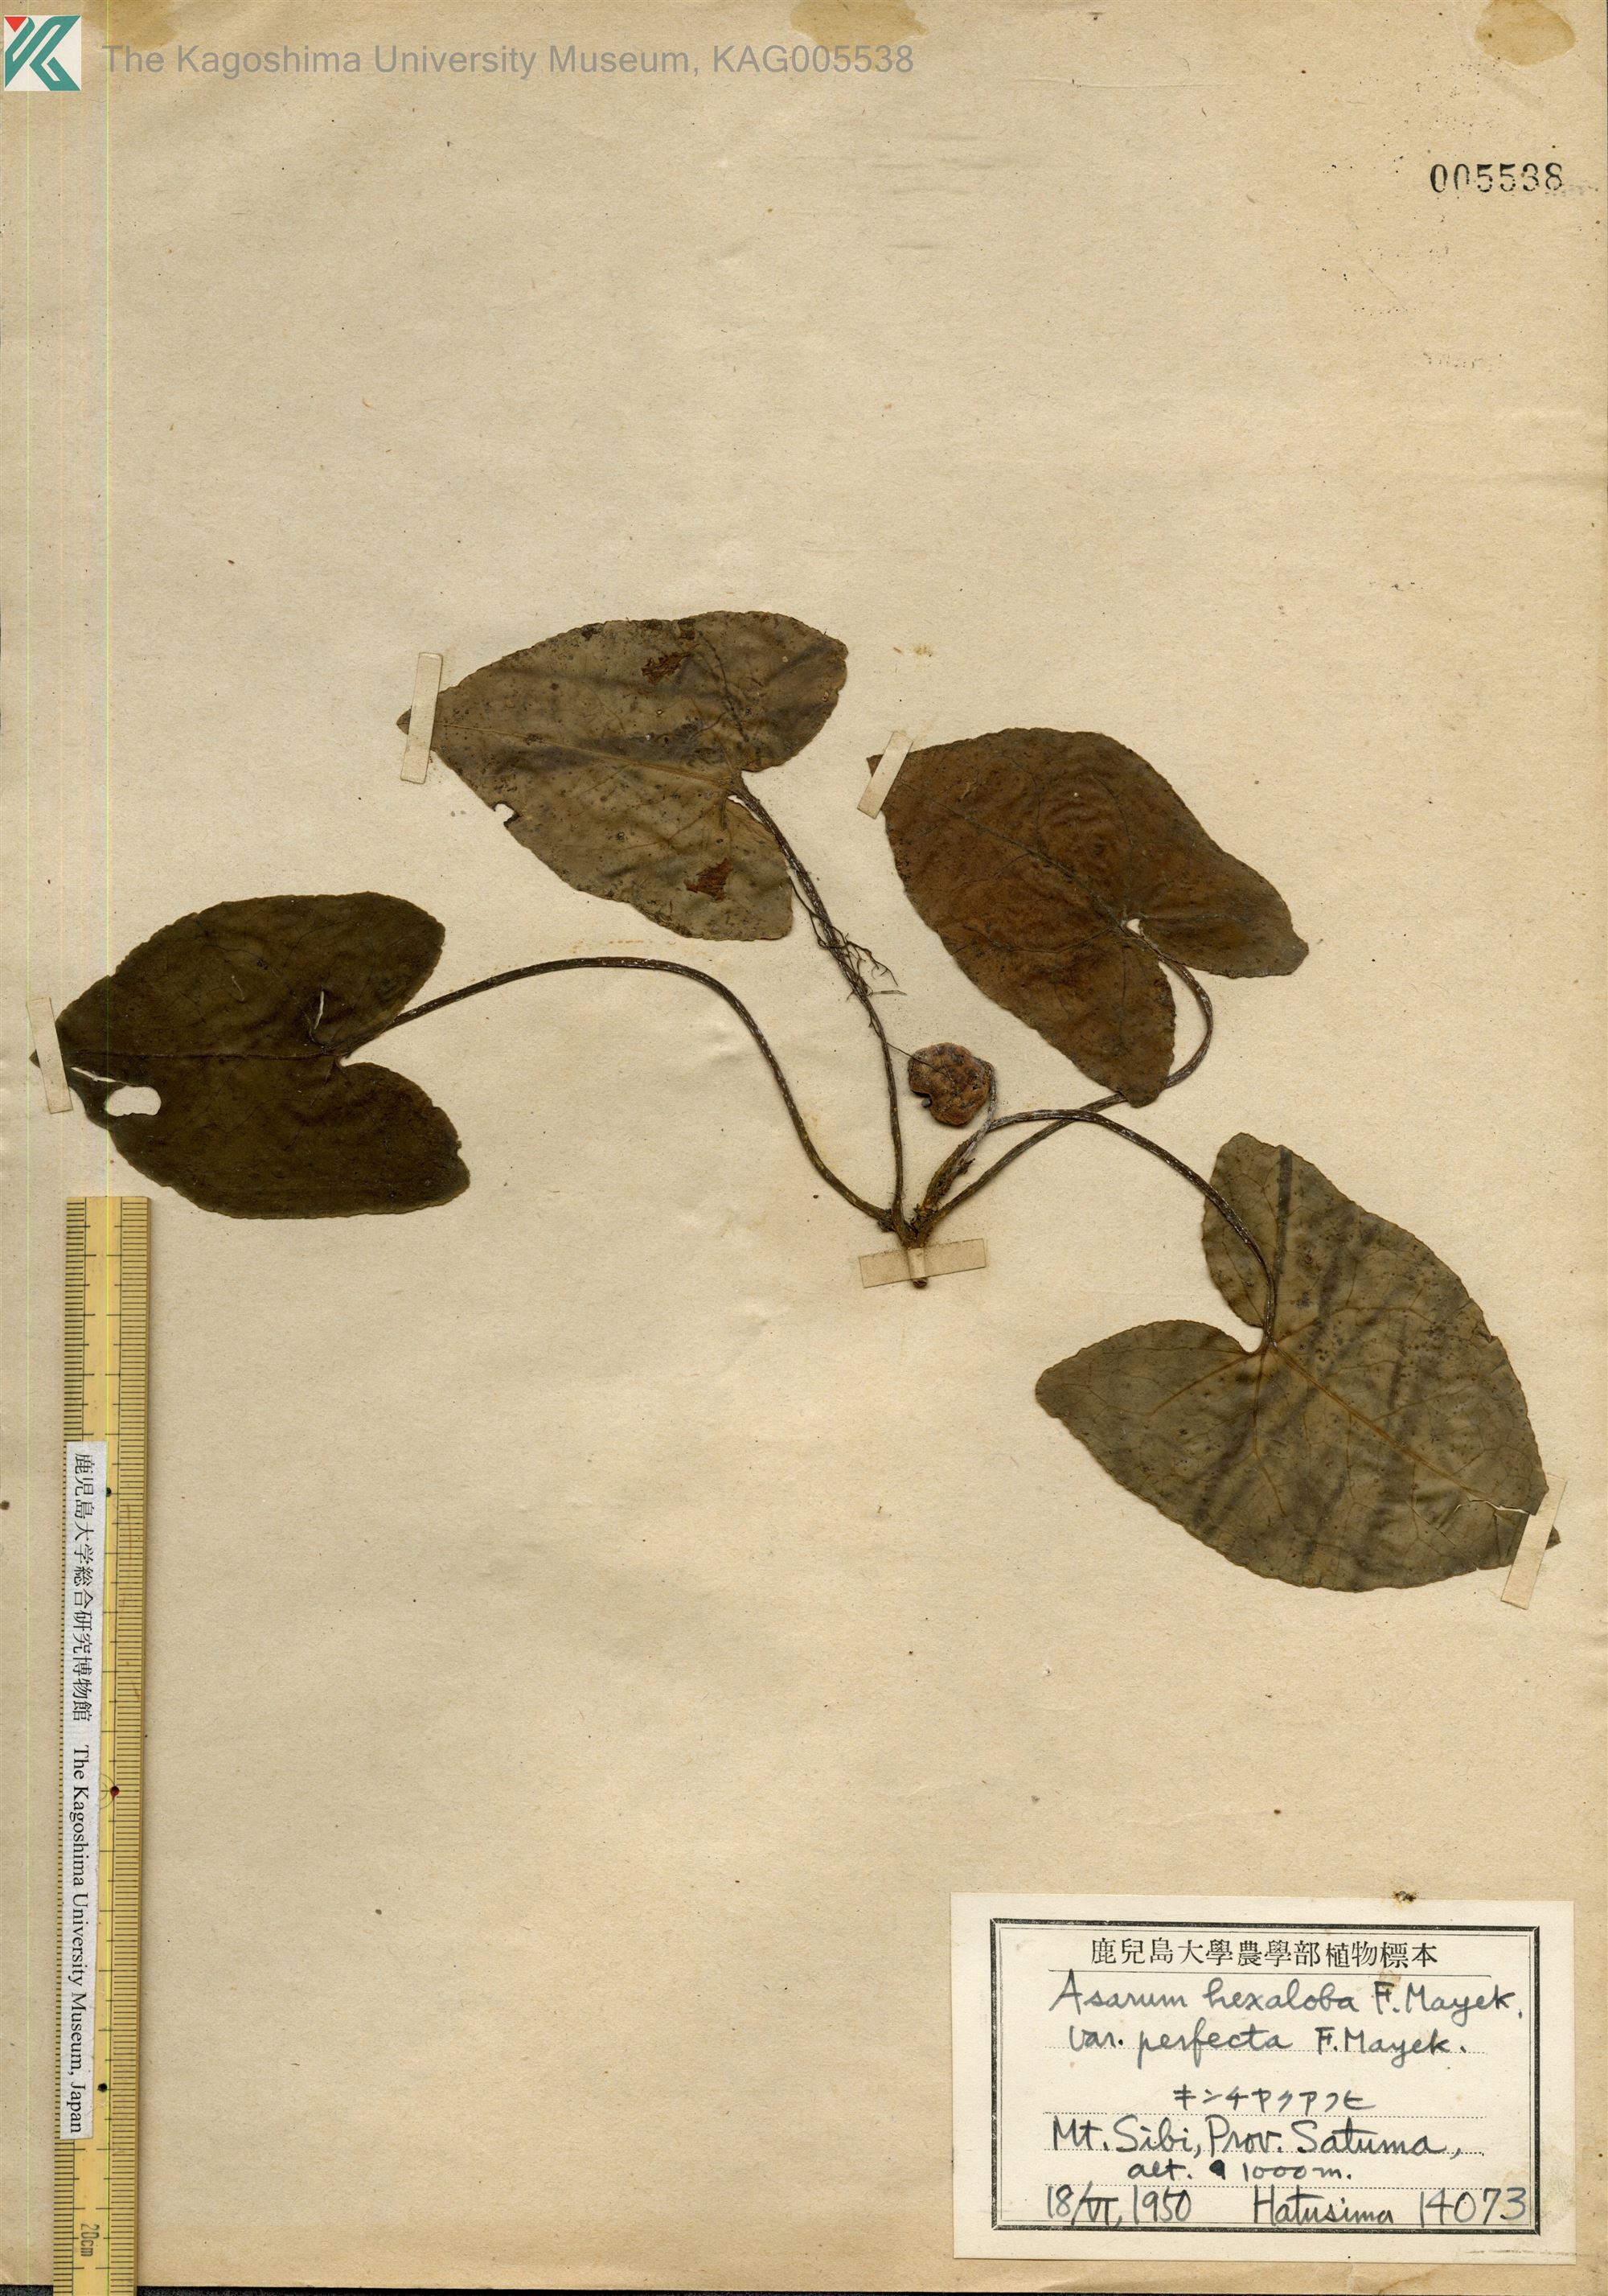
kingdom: Plantae
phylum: Tracheophyta
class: Magnoliopsida
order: Piperales
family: Aristolochiaceae
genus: Asarum
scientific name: Asarum hexalobum
